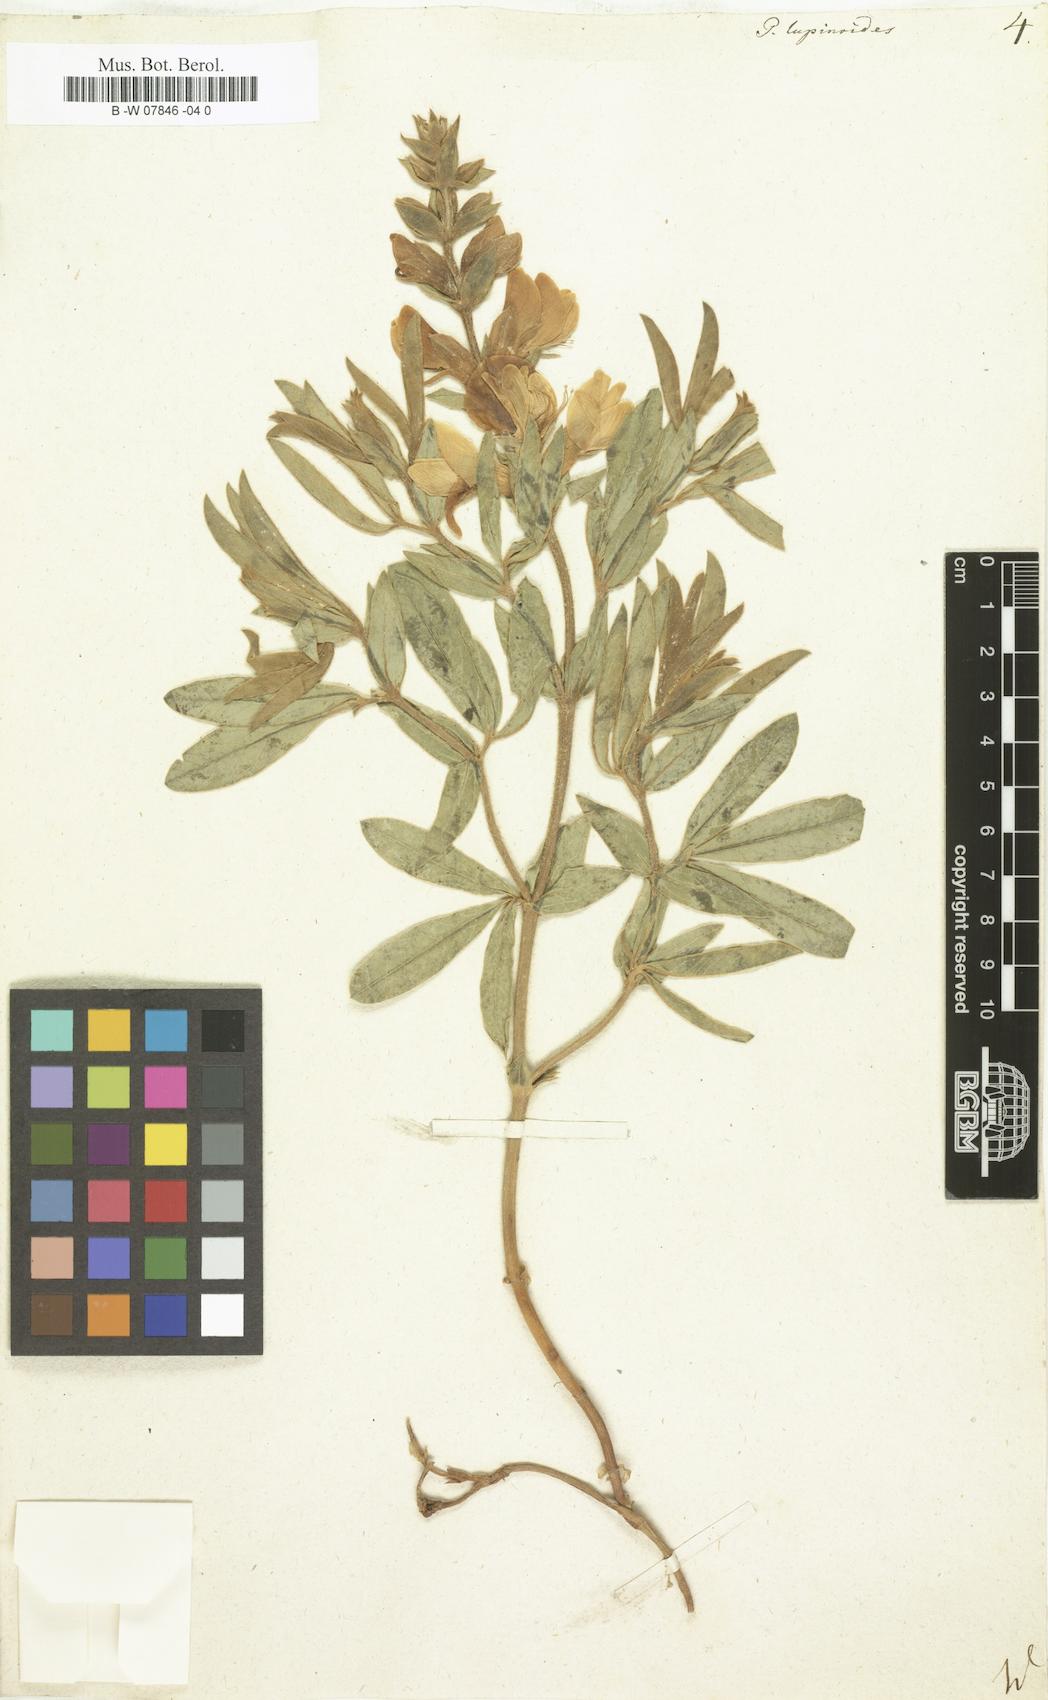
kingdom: Plantae
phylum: Tracheophyta
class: Magnoliopsida
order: Fabales
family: Fabaceae
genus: Thermopsis
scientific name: Thermopsis lanceolata
